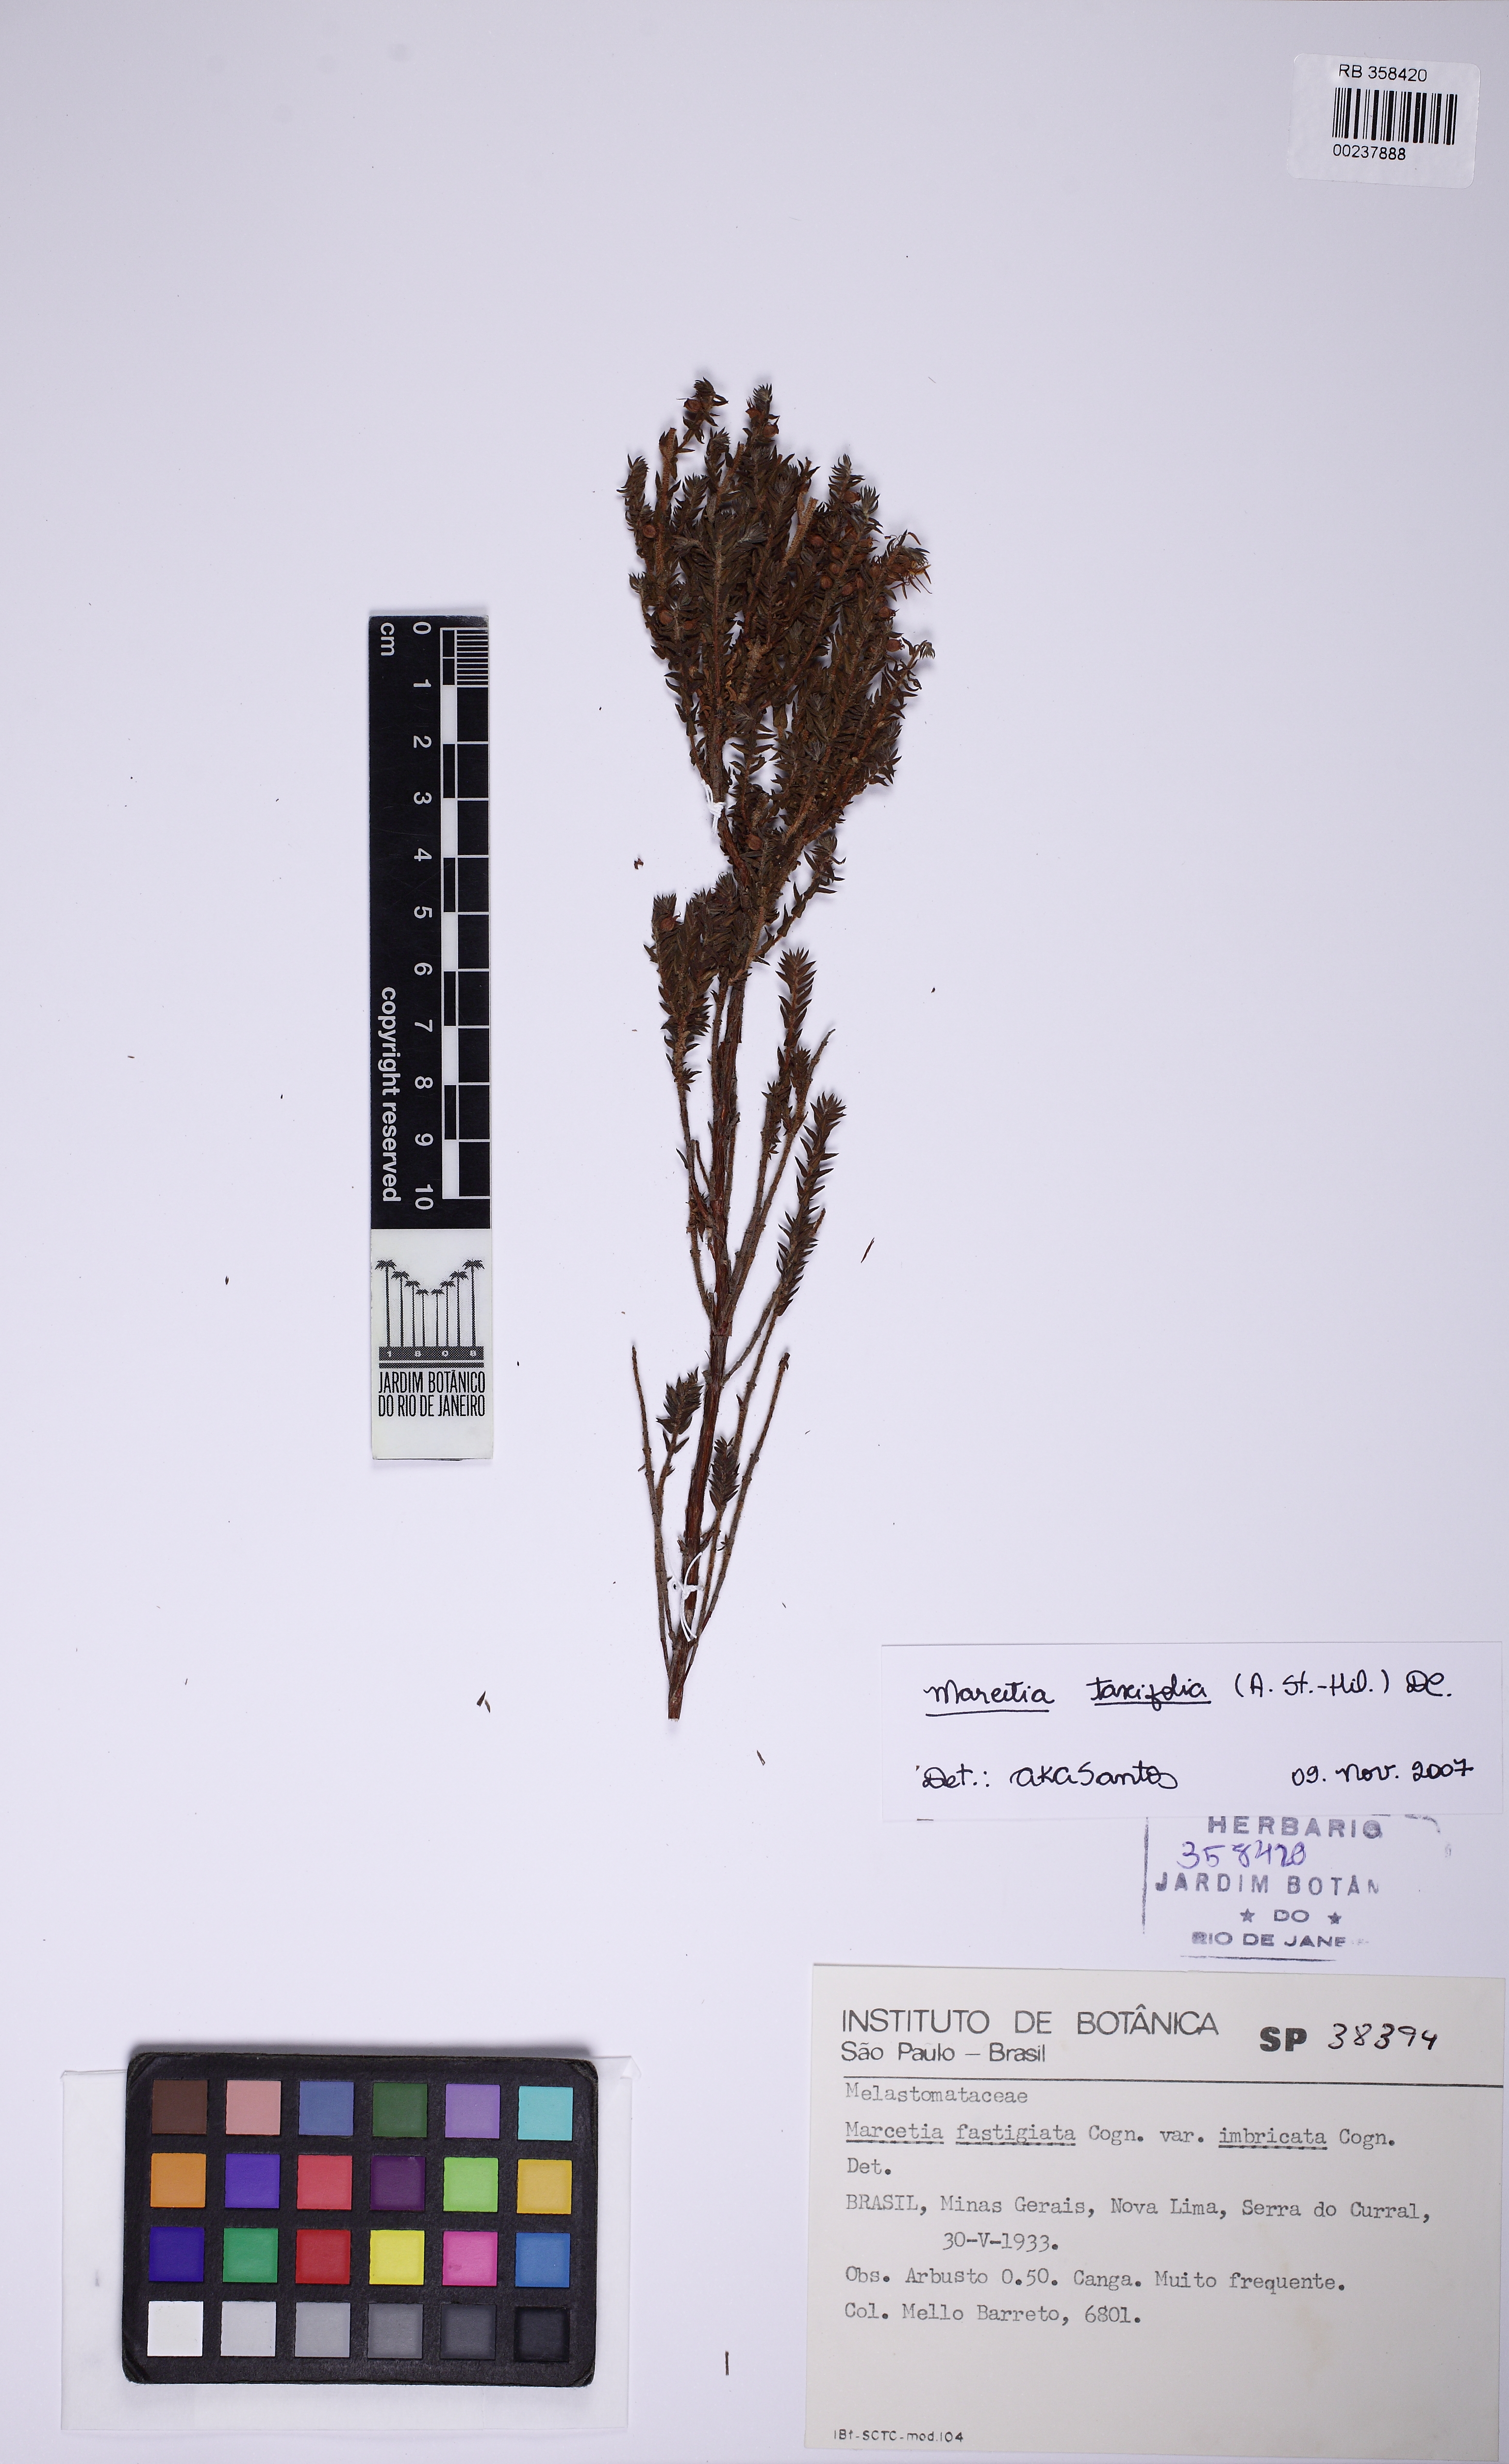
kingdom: Plantae
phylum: Tracheophyta
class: Magnoliopsida
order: Myrtales
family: Melastomataceae
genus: Marcetia
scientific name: Marcetia taxifolia
